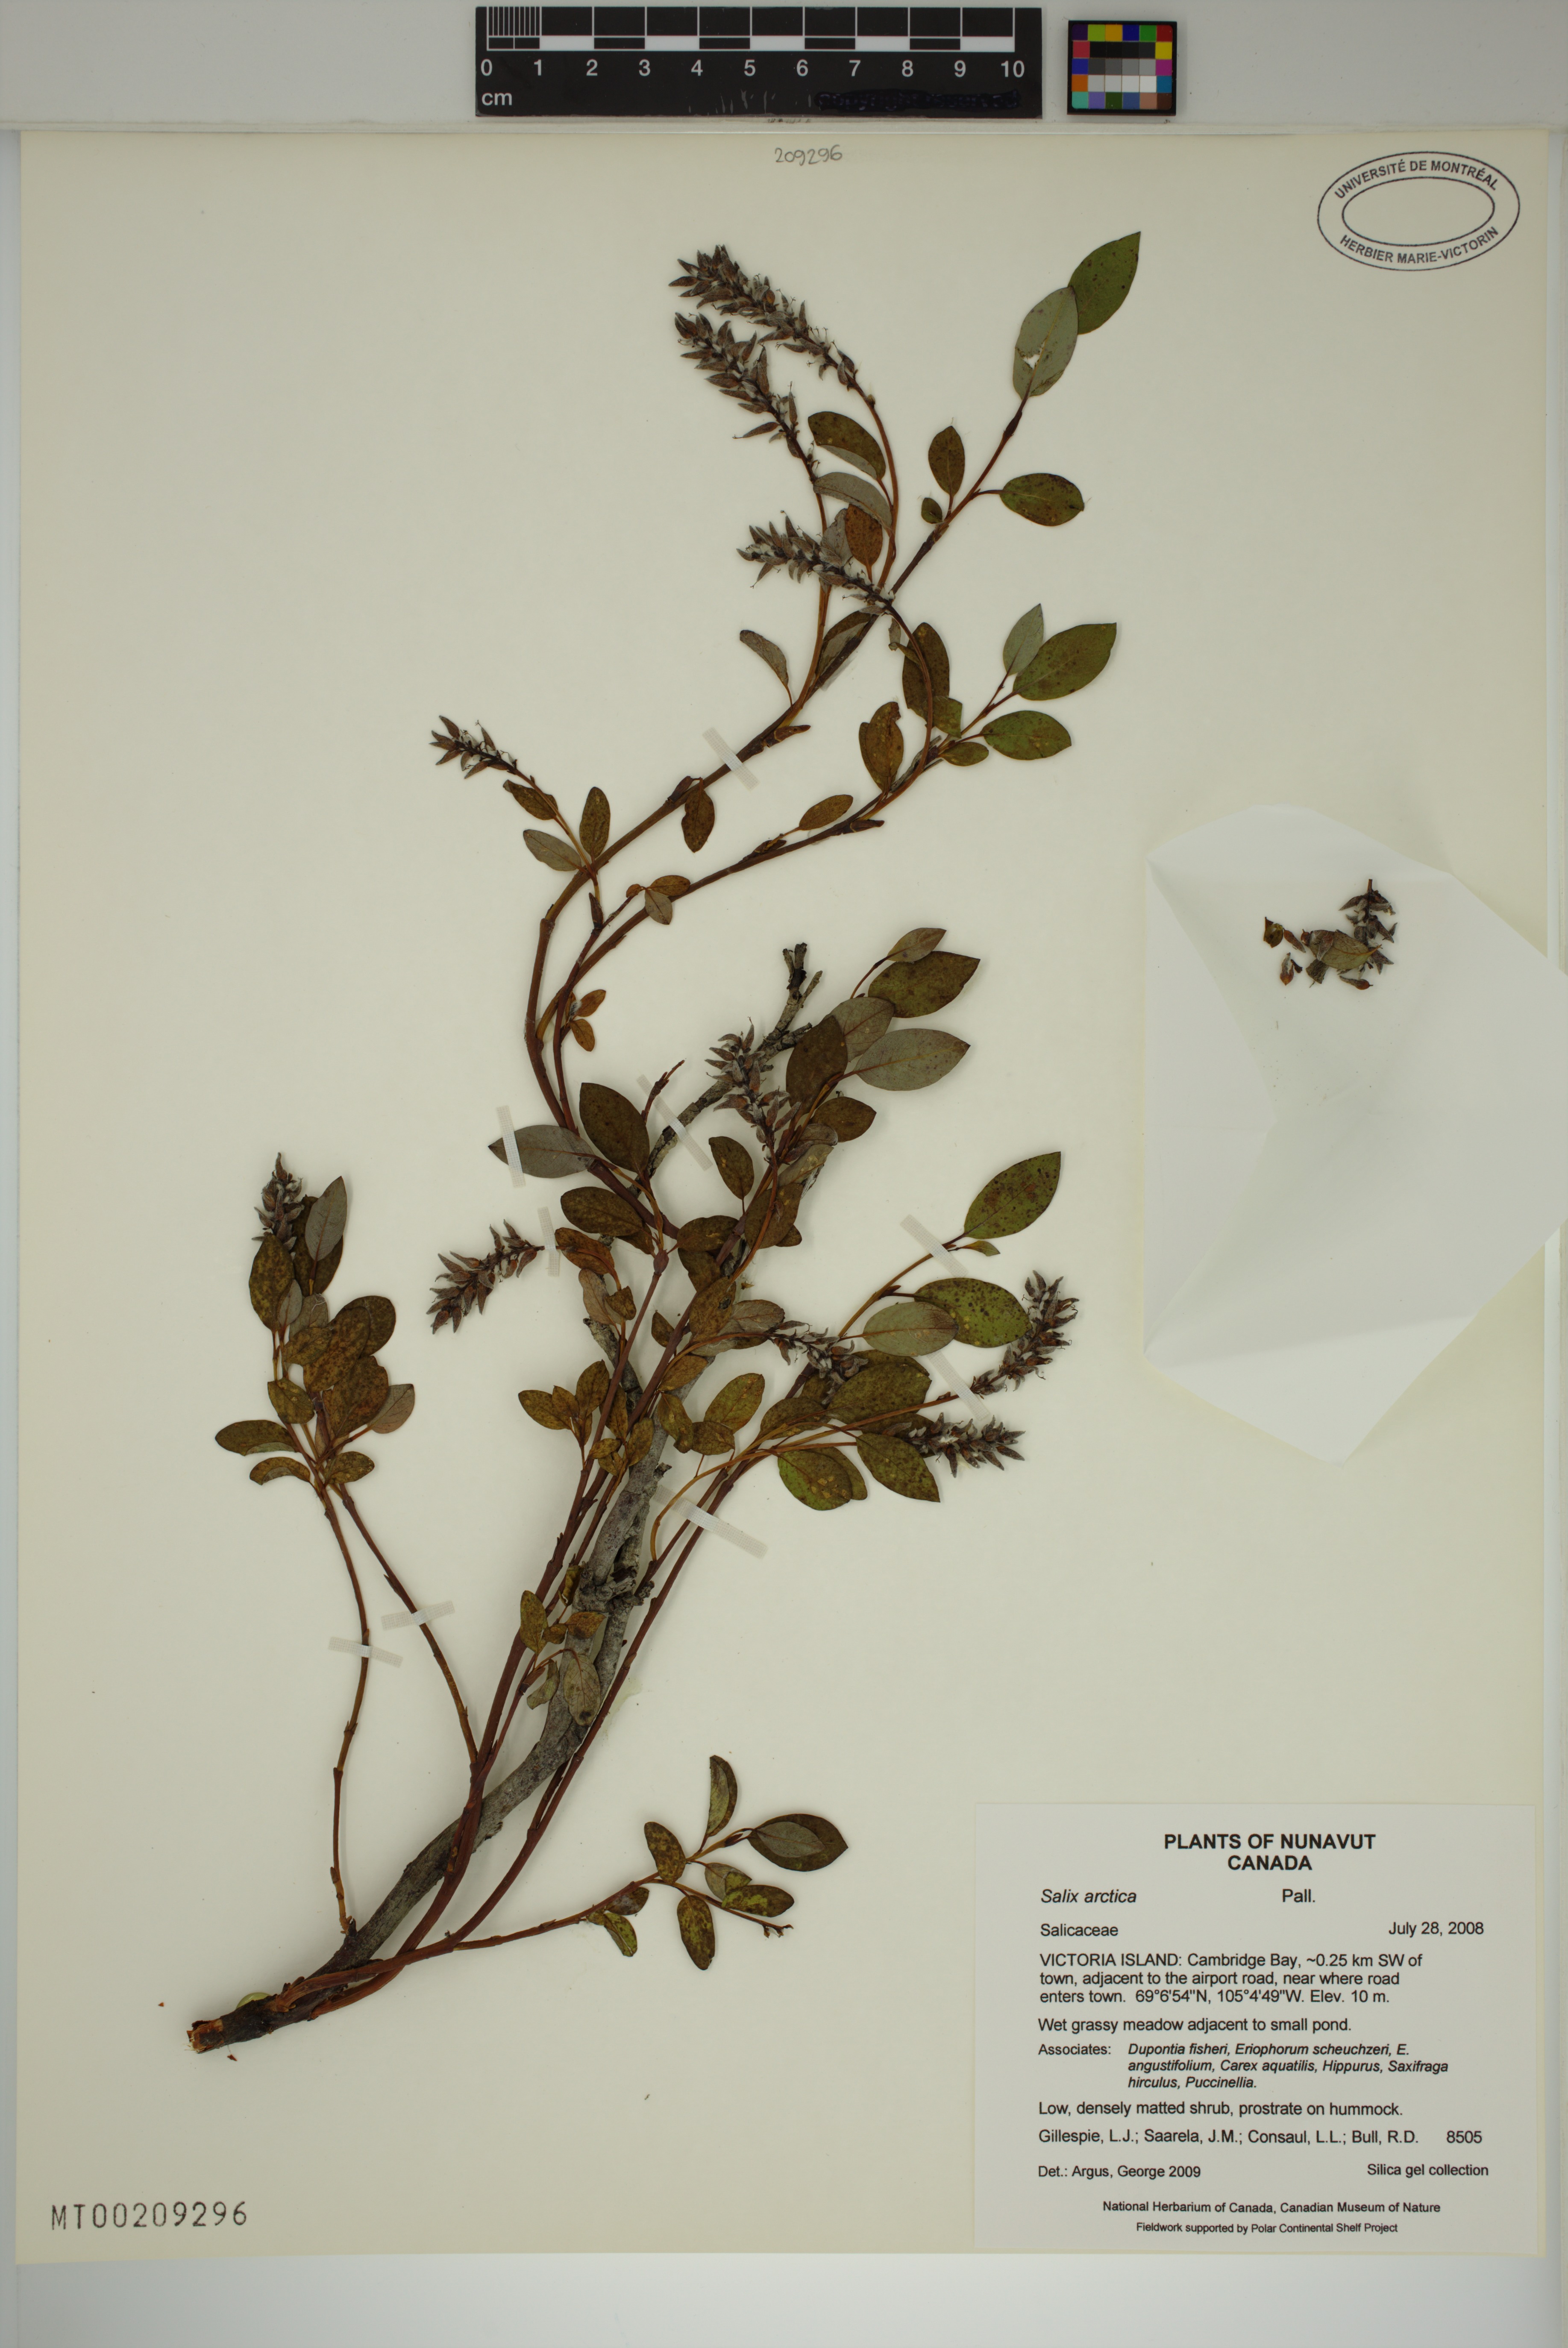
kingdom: Plantae
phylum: Tracheophyta
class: Magnoliopsida
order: Malpighiales
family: Salicaceae
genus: Salix
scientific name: Salix arctica
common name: Arctic willow
